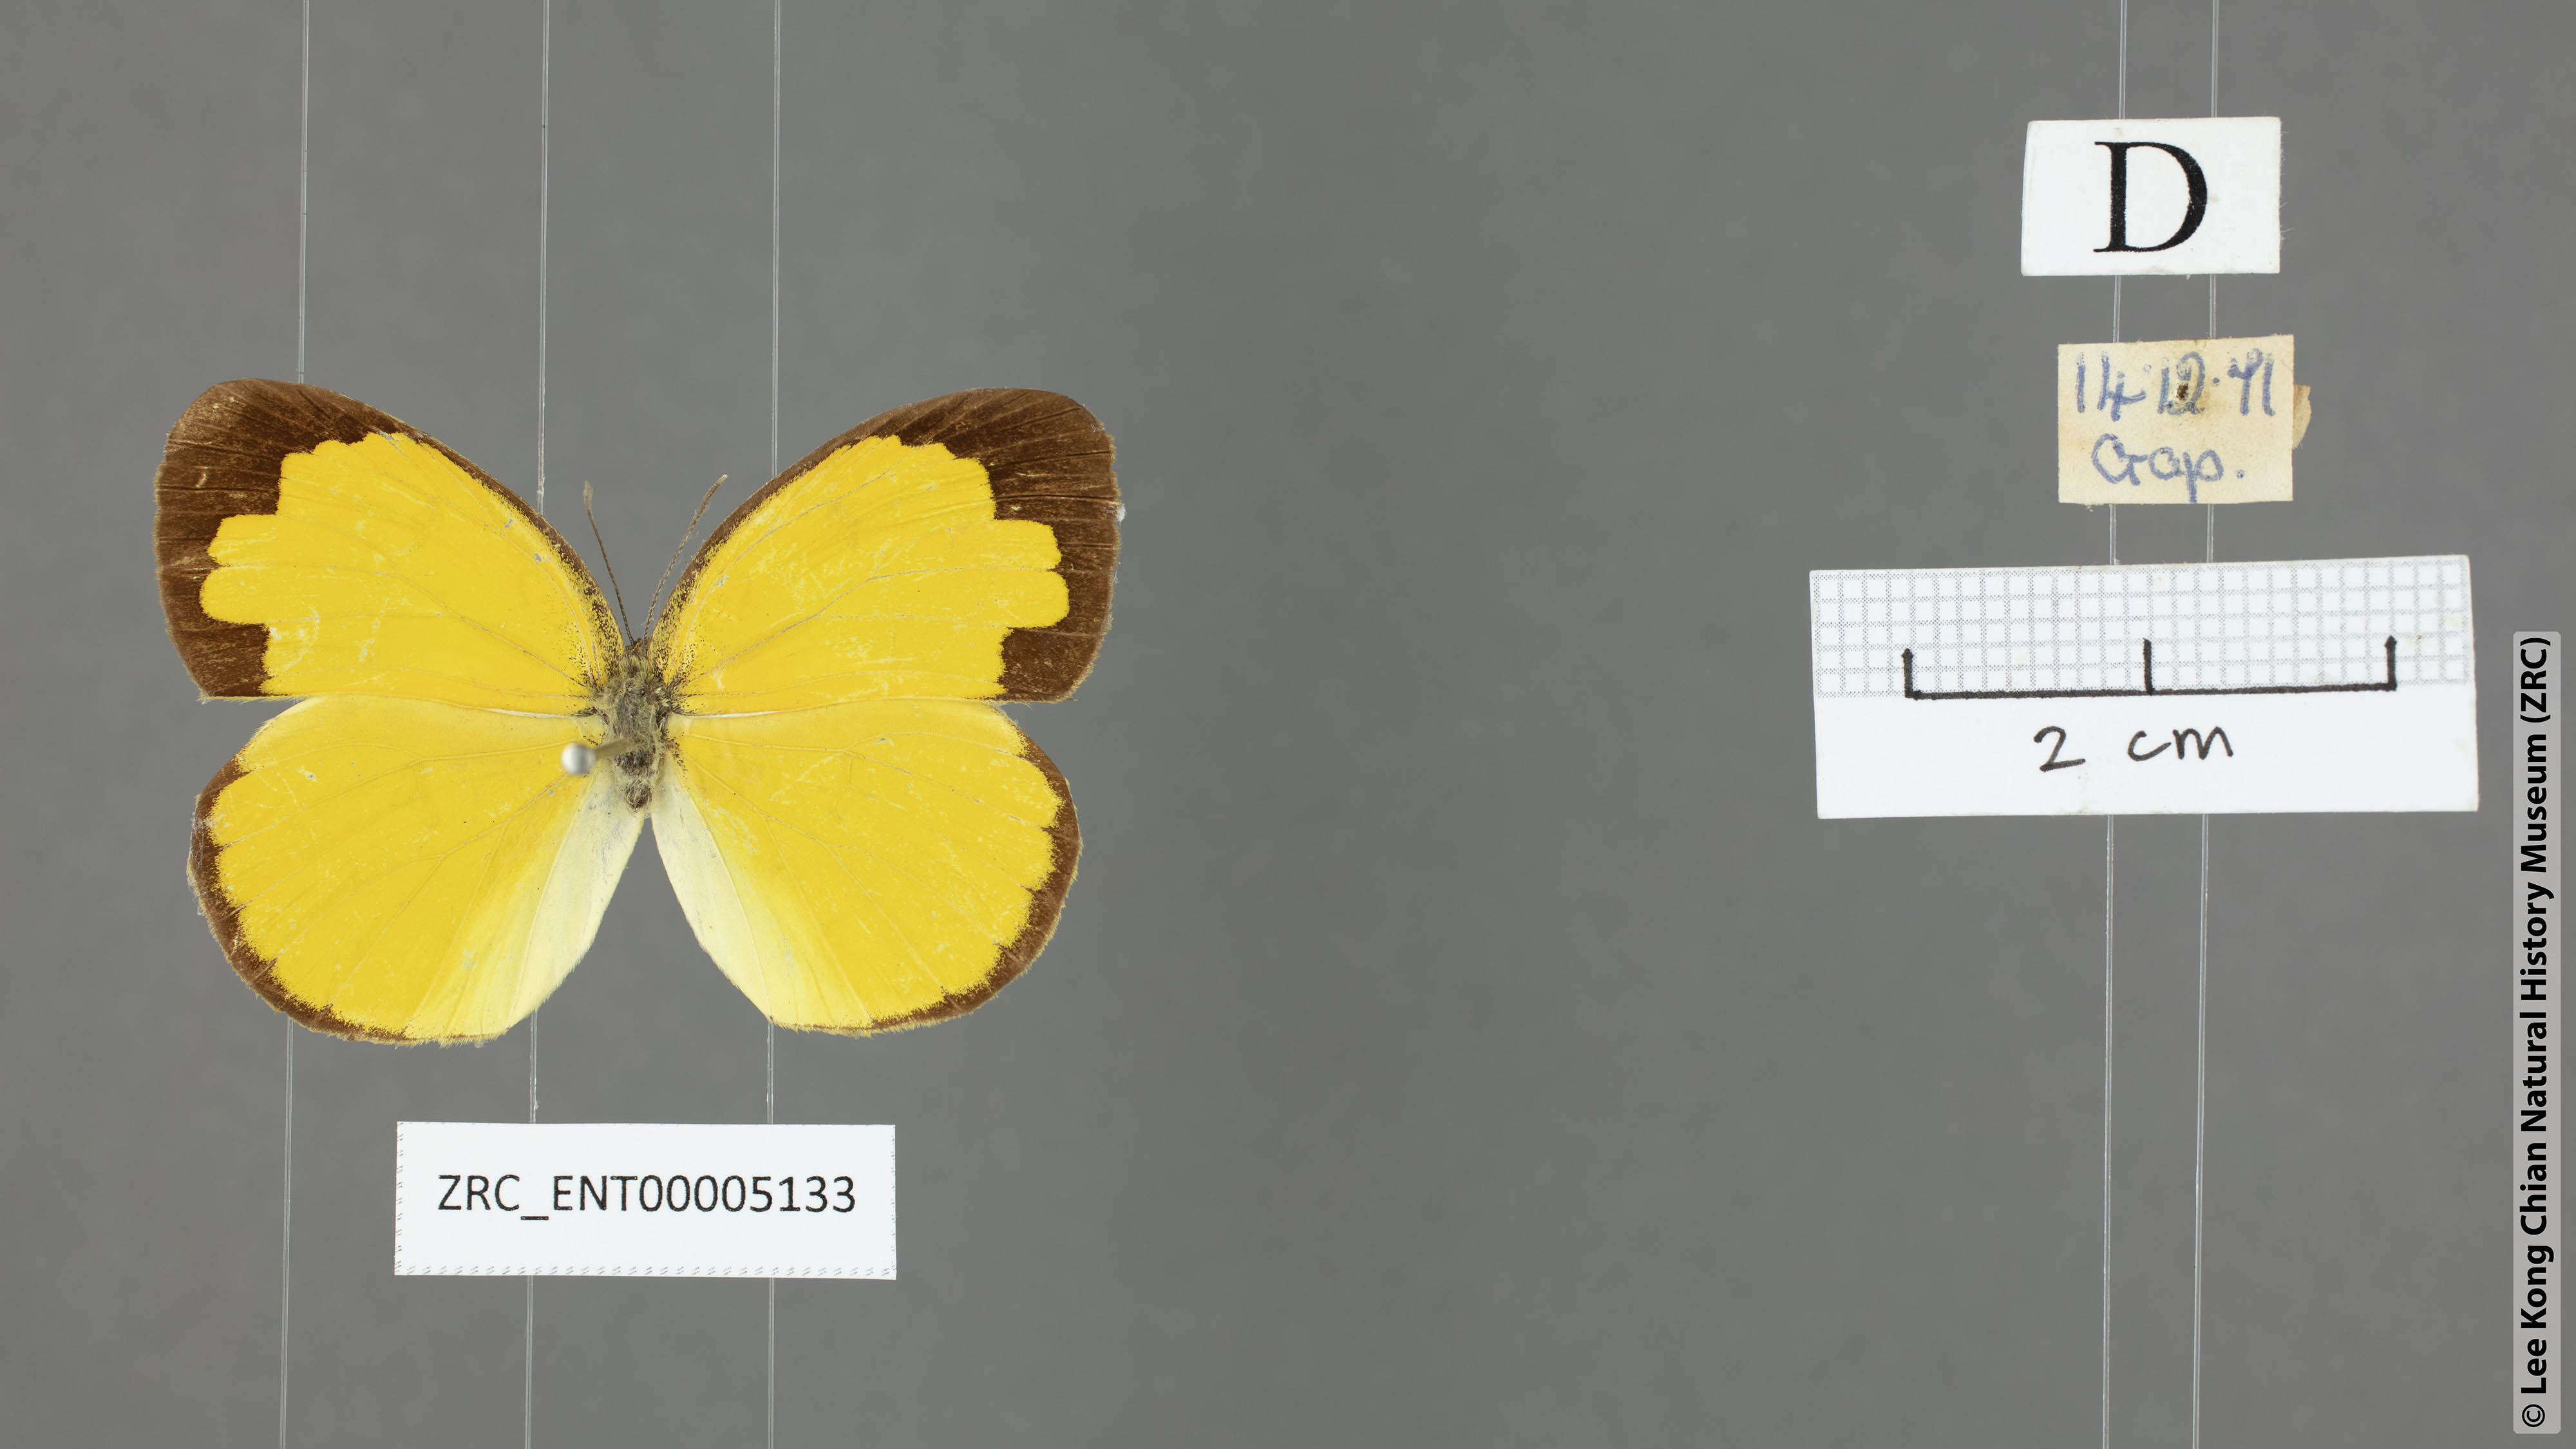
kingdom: Animalia
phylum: Arthropoda
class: Insecta
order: Lepidoptera
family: Pieridae
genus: Eurema
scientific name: Eurema lacteola
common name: Scarce grass yellow
